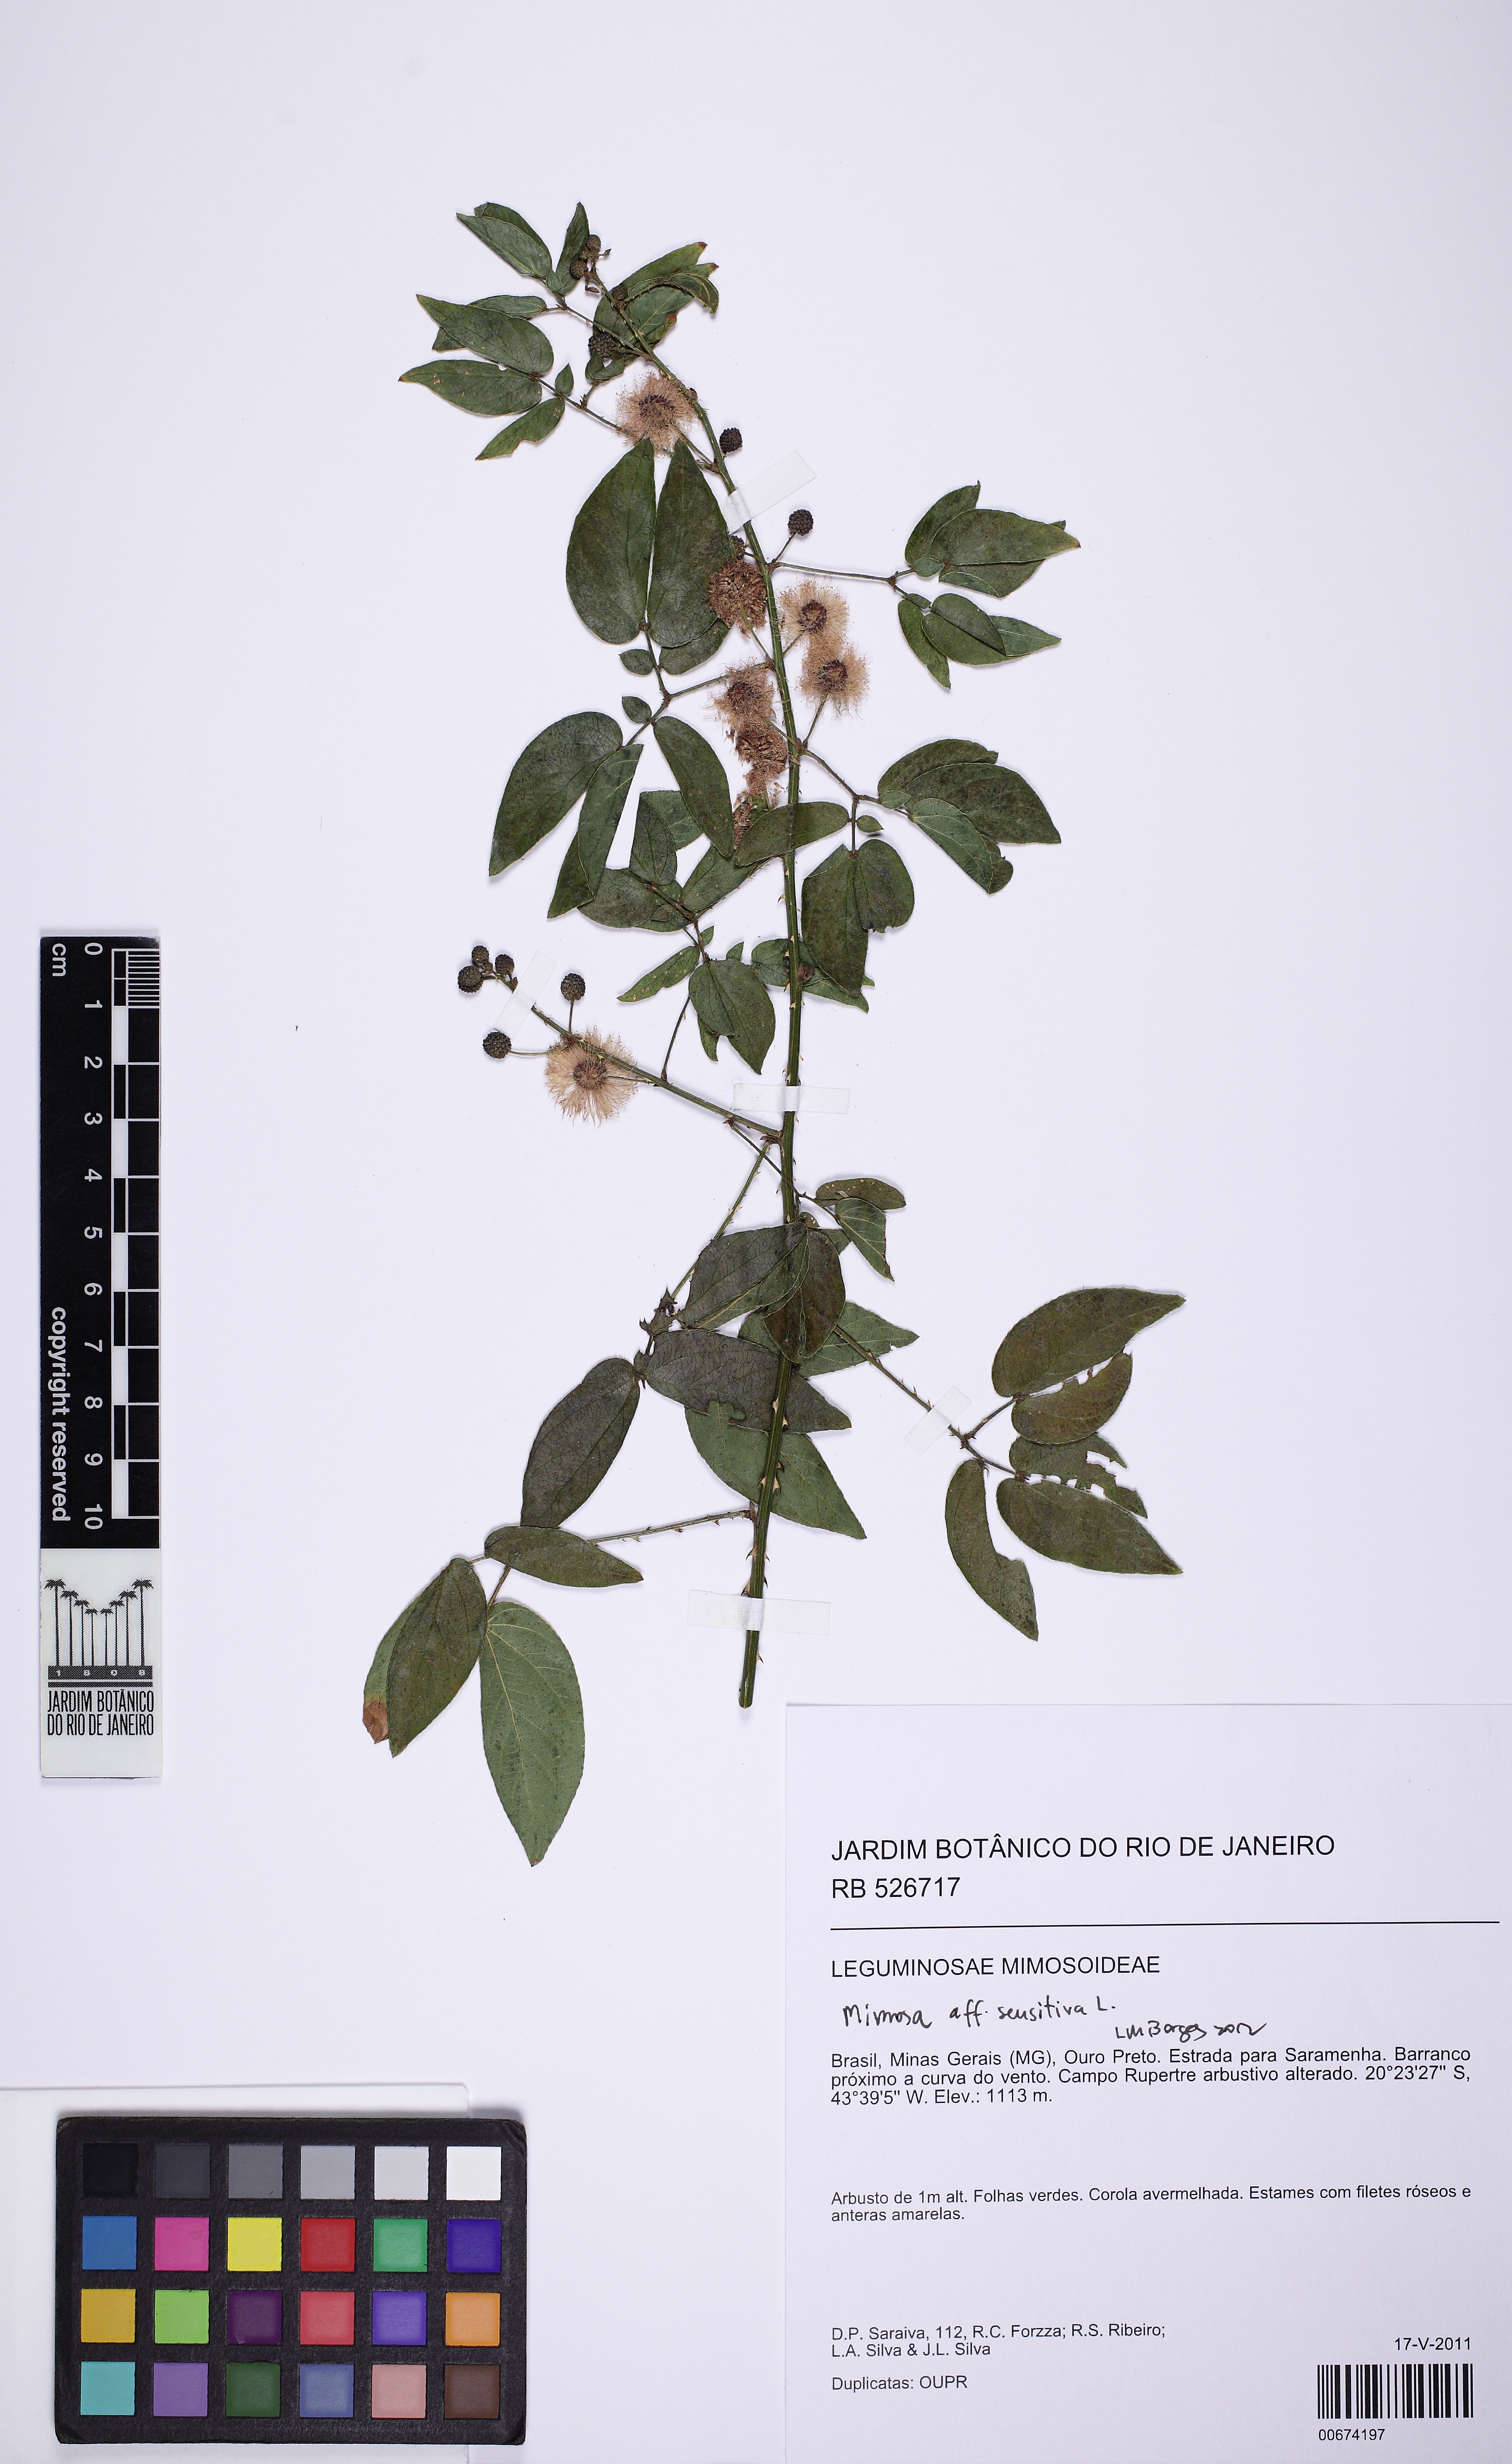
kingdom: Plantae
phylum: Tracheophyta
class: Magnoliopsida
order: Fabales
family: Fabaceae
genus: Mimosa
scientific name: Mimosa sensitiva
